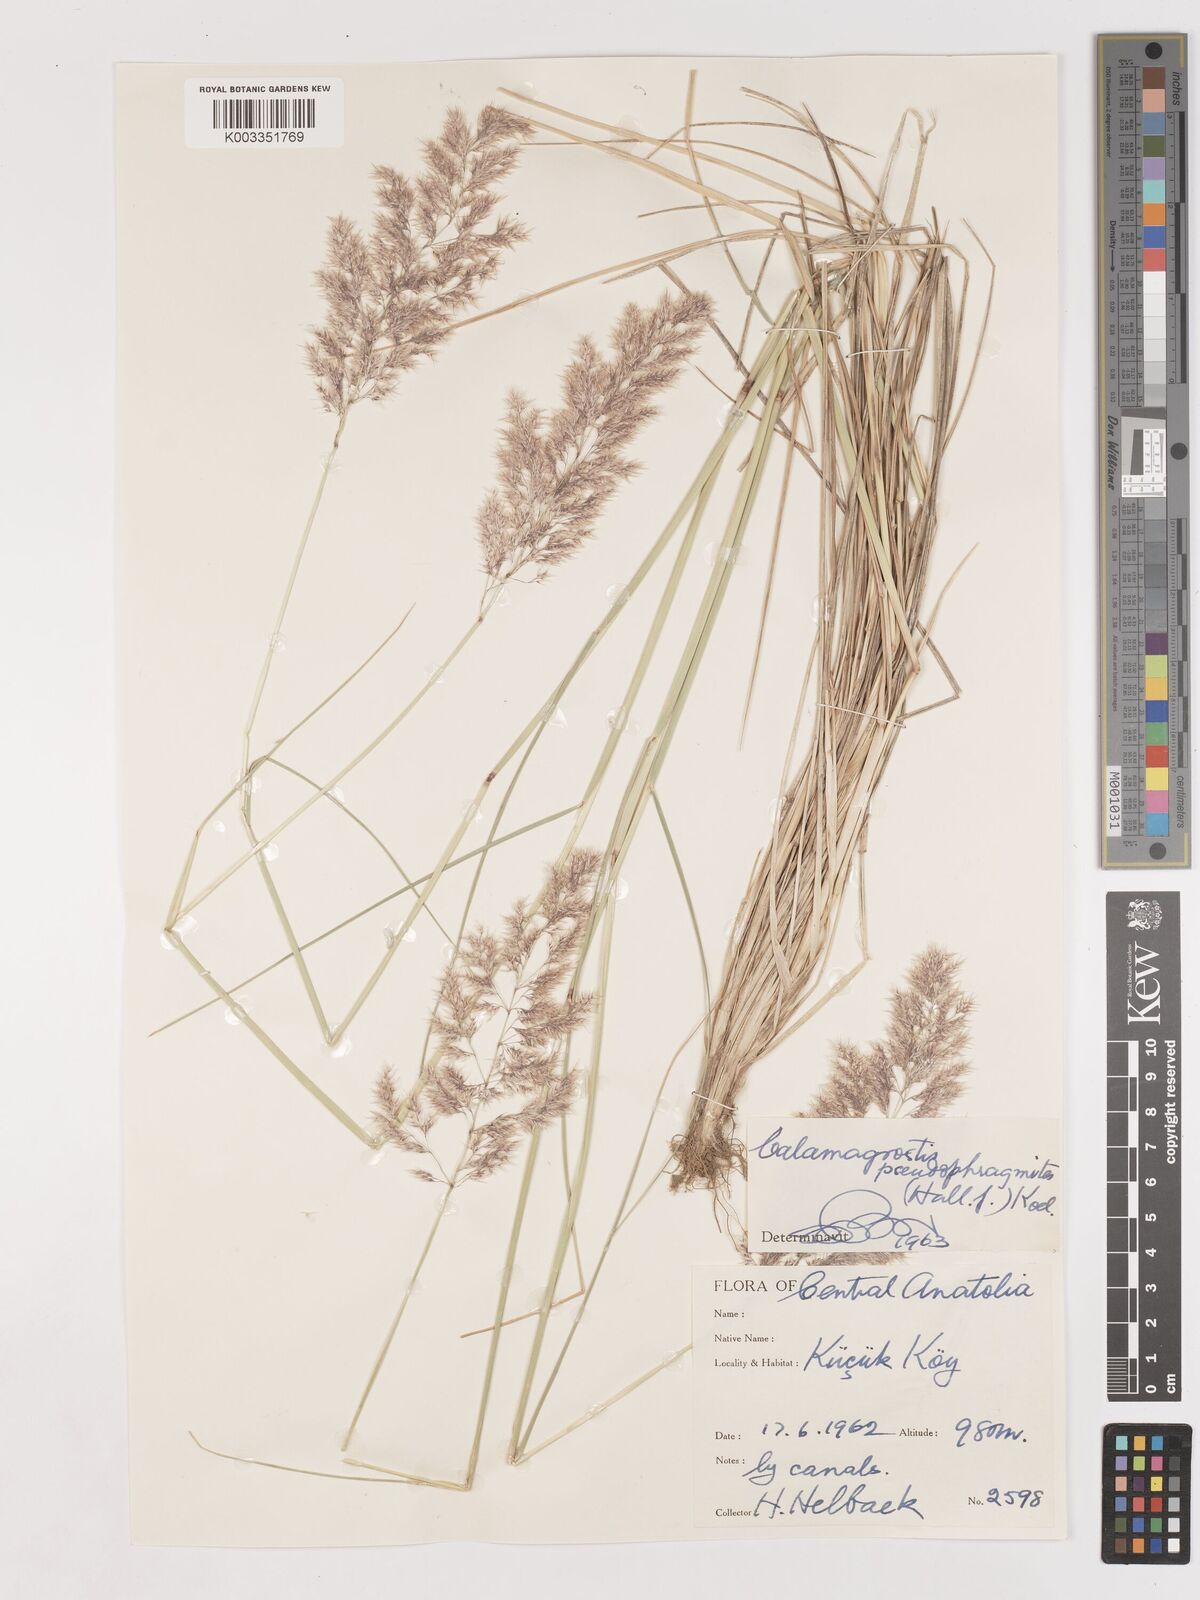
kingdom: Plantae
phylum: Tracheophyta
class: Liliopsida
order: Poales
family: Poaceae
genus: Calamagrostis
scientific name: Calamagrostis pseudophragmites
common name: Coastal small-reed
